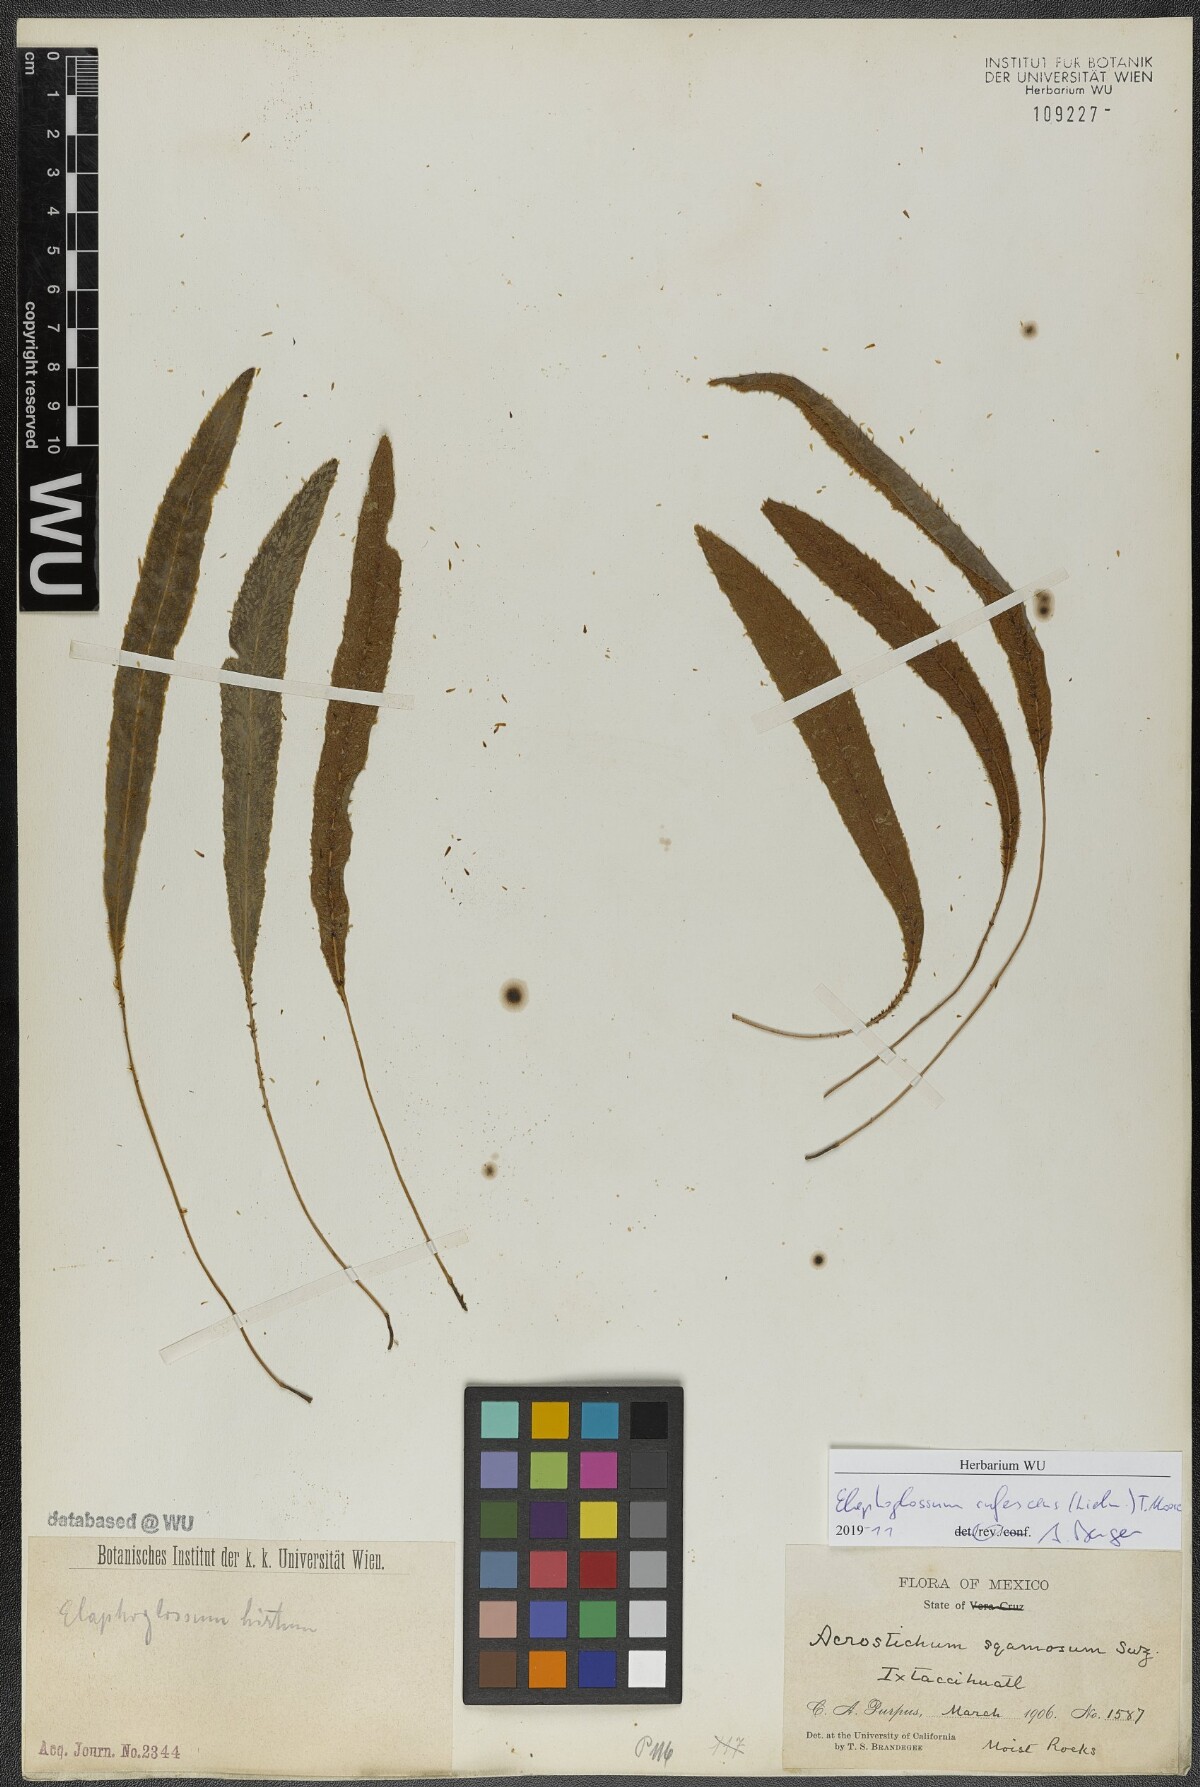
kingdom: Plantae
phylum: Tracheophyta
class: Polypodiopsida
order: Polypodiales
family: Dryopteridaceae
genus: Elaphoglossum
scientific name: Elaphoglossum rufescens
